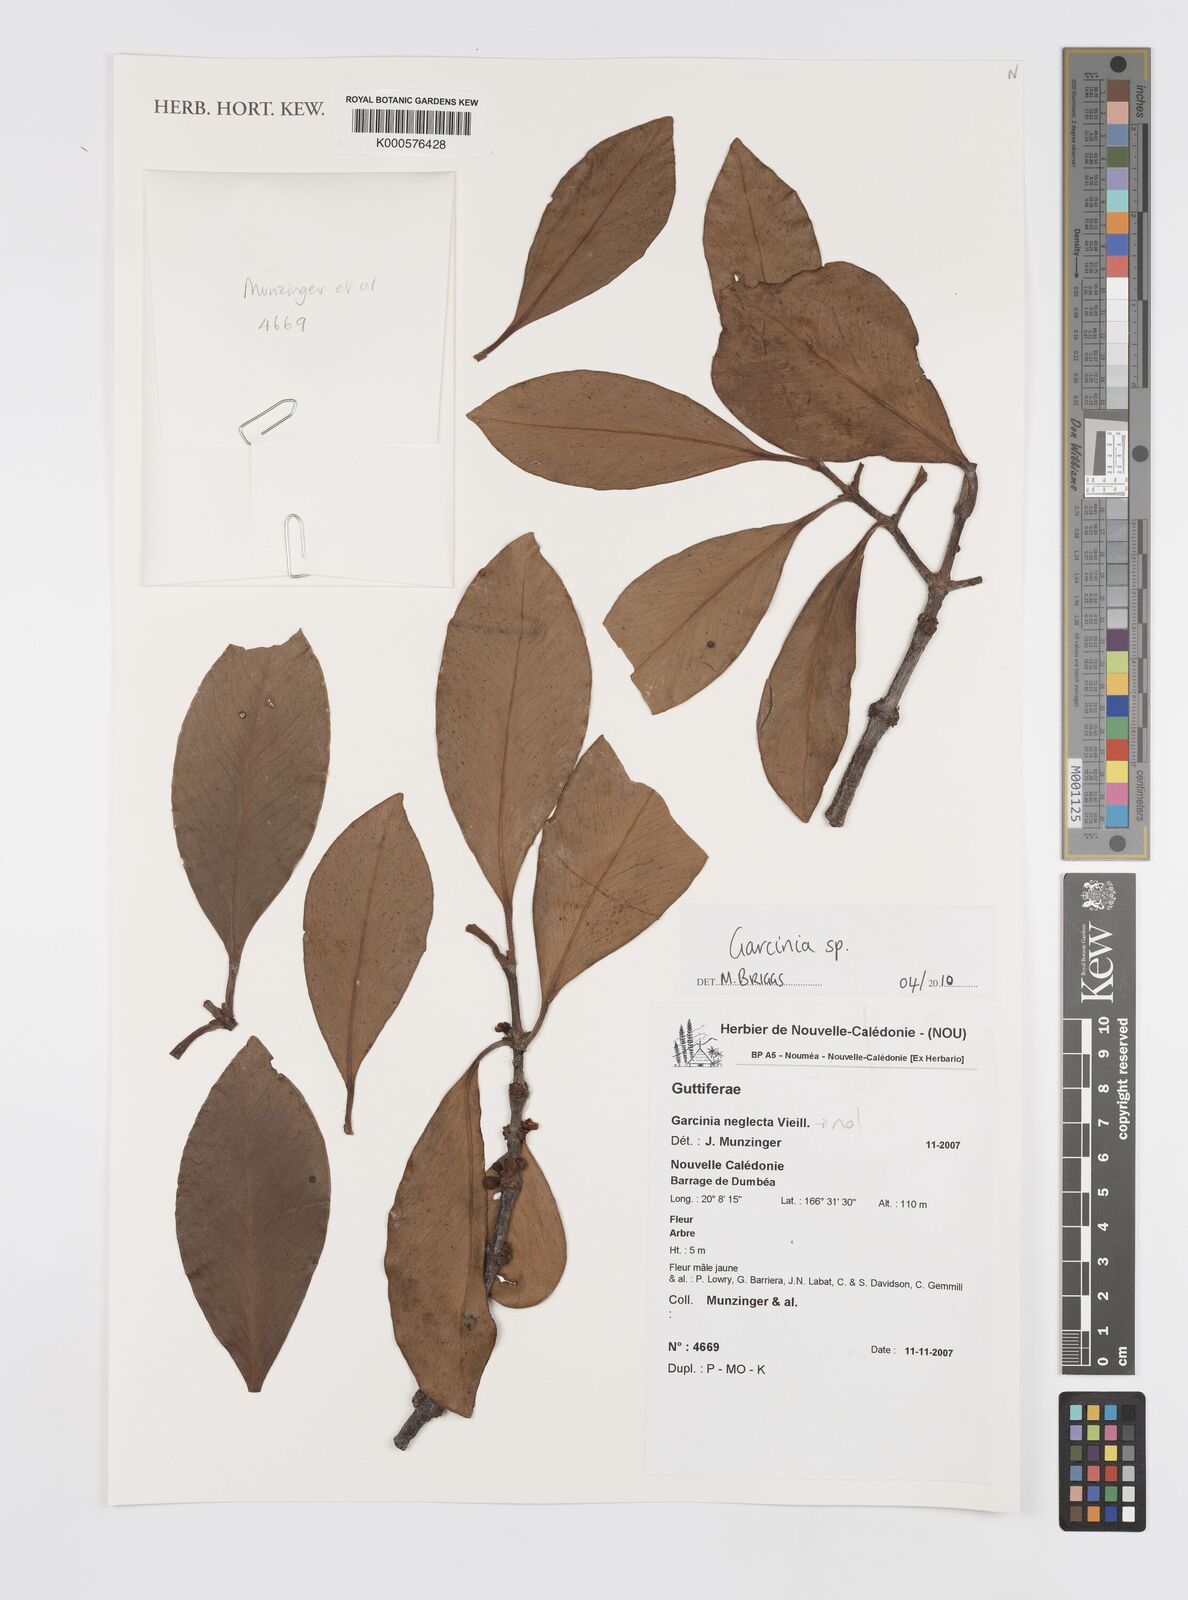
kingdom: Plantae
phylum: Tracheophyta
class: Magnoliopsida
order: Malpighiales
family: Clusiaceae
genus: Garcinia
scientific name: Garcinia
